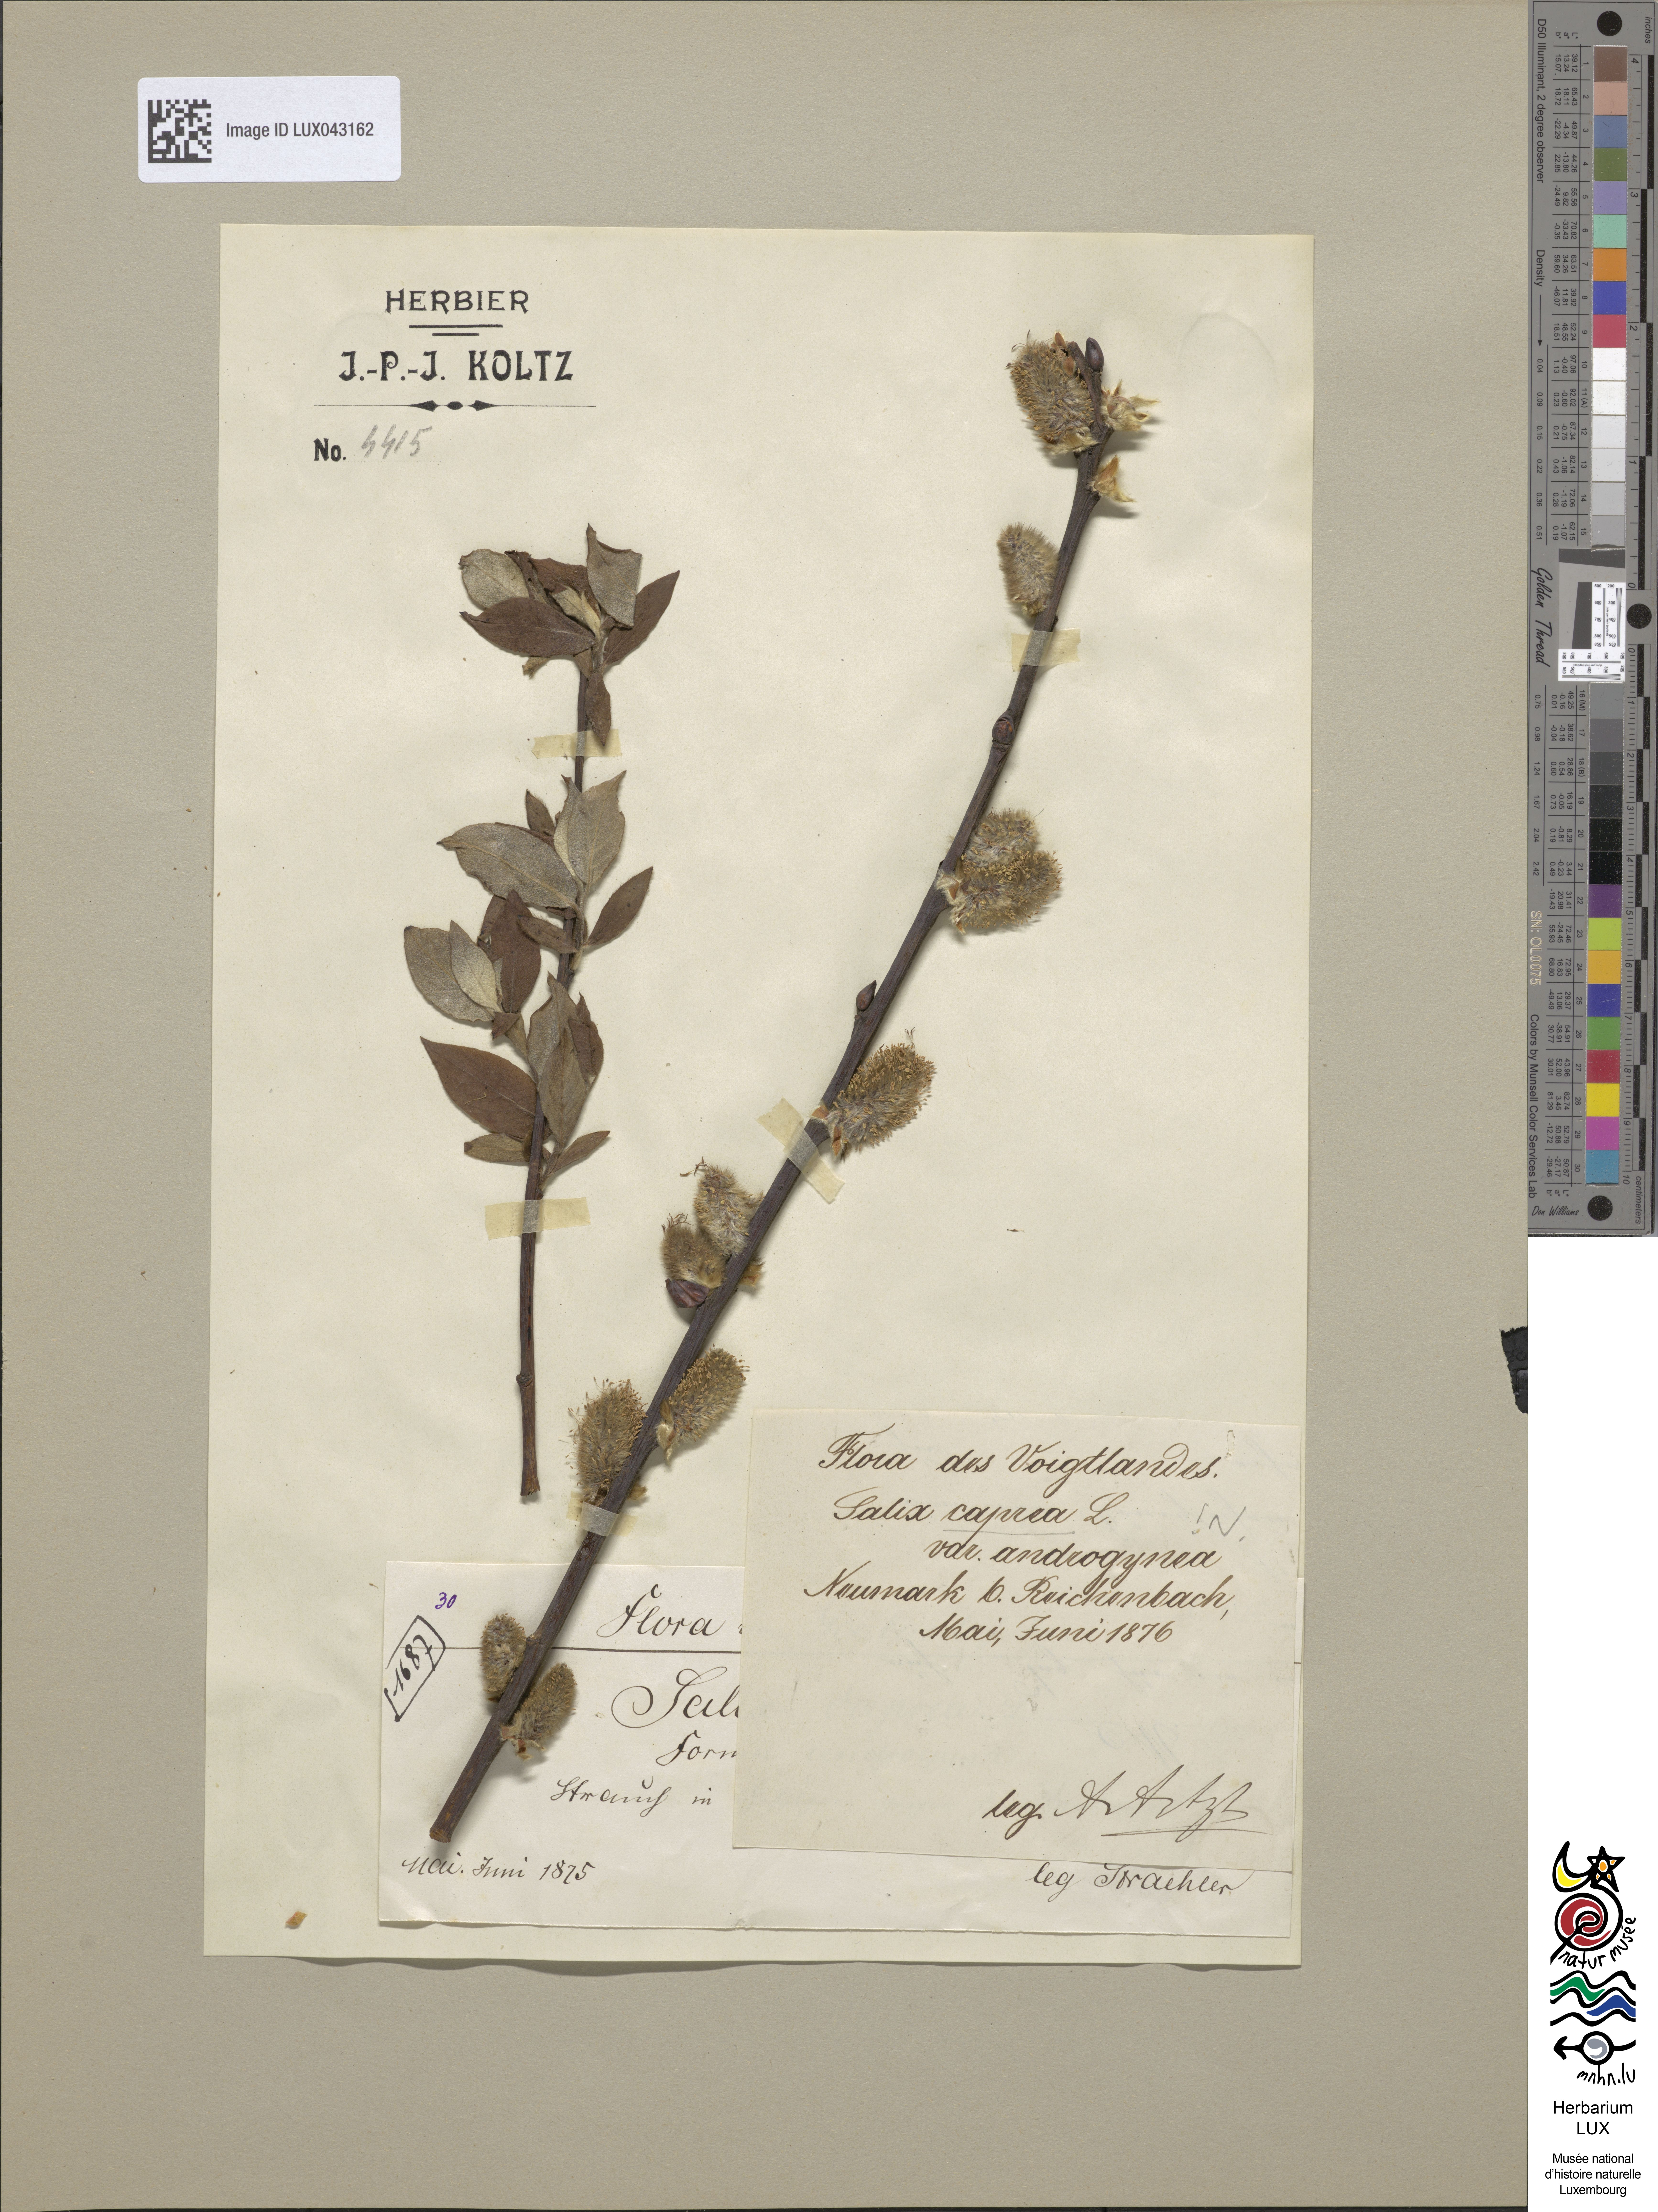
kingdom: Plantae
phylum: Tracheophyta
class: Magnoliopsida
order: Malpighiales
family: Salicaceae
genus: Salix
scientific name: Salix caprea
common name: Goat willow
